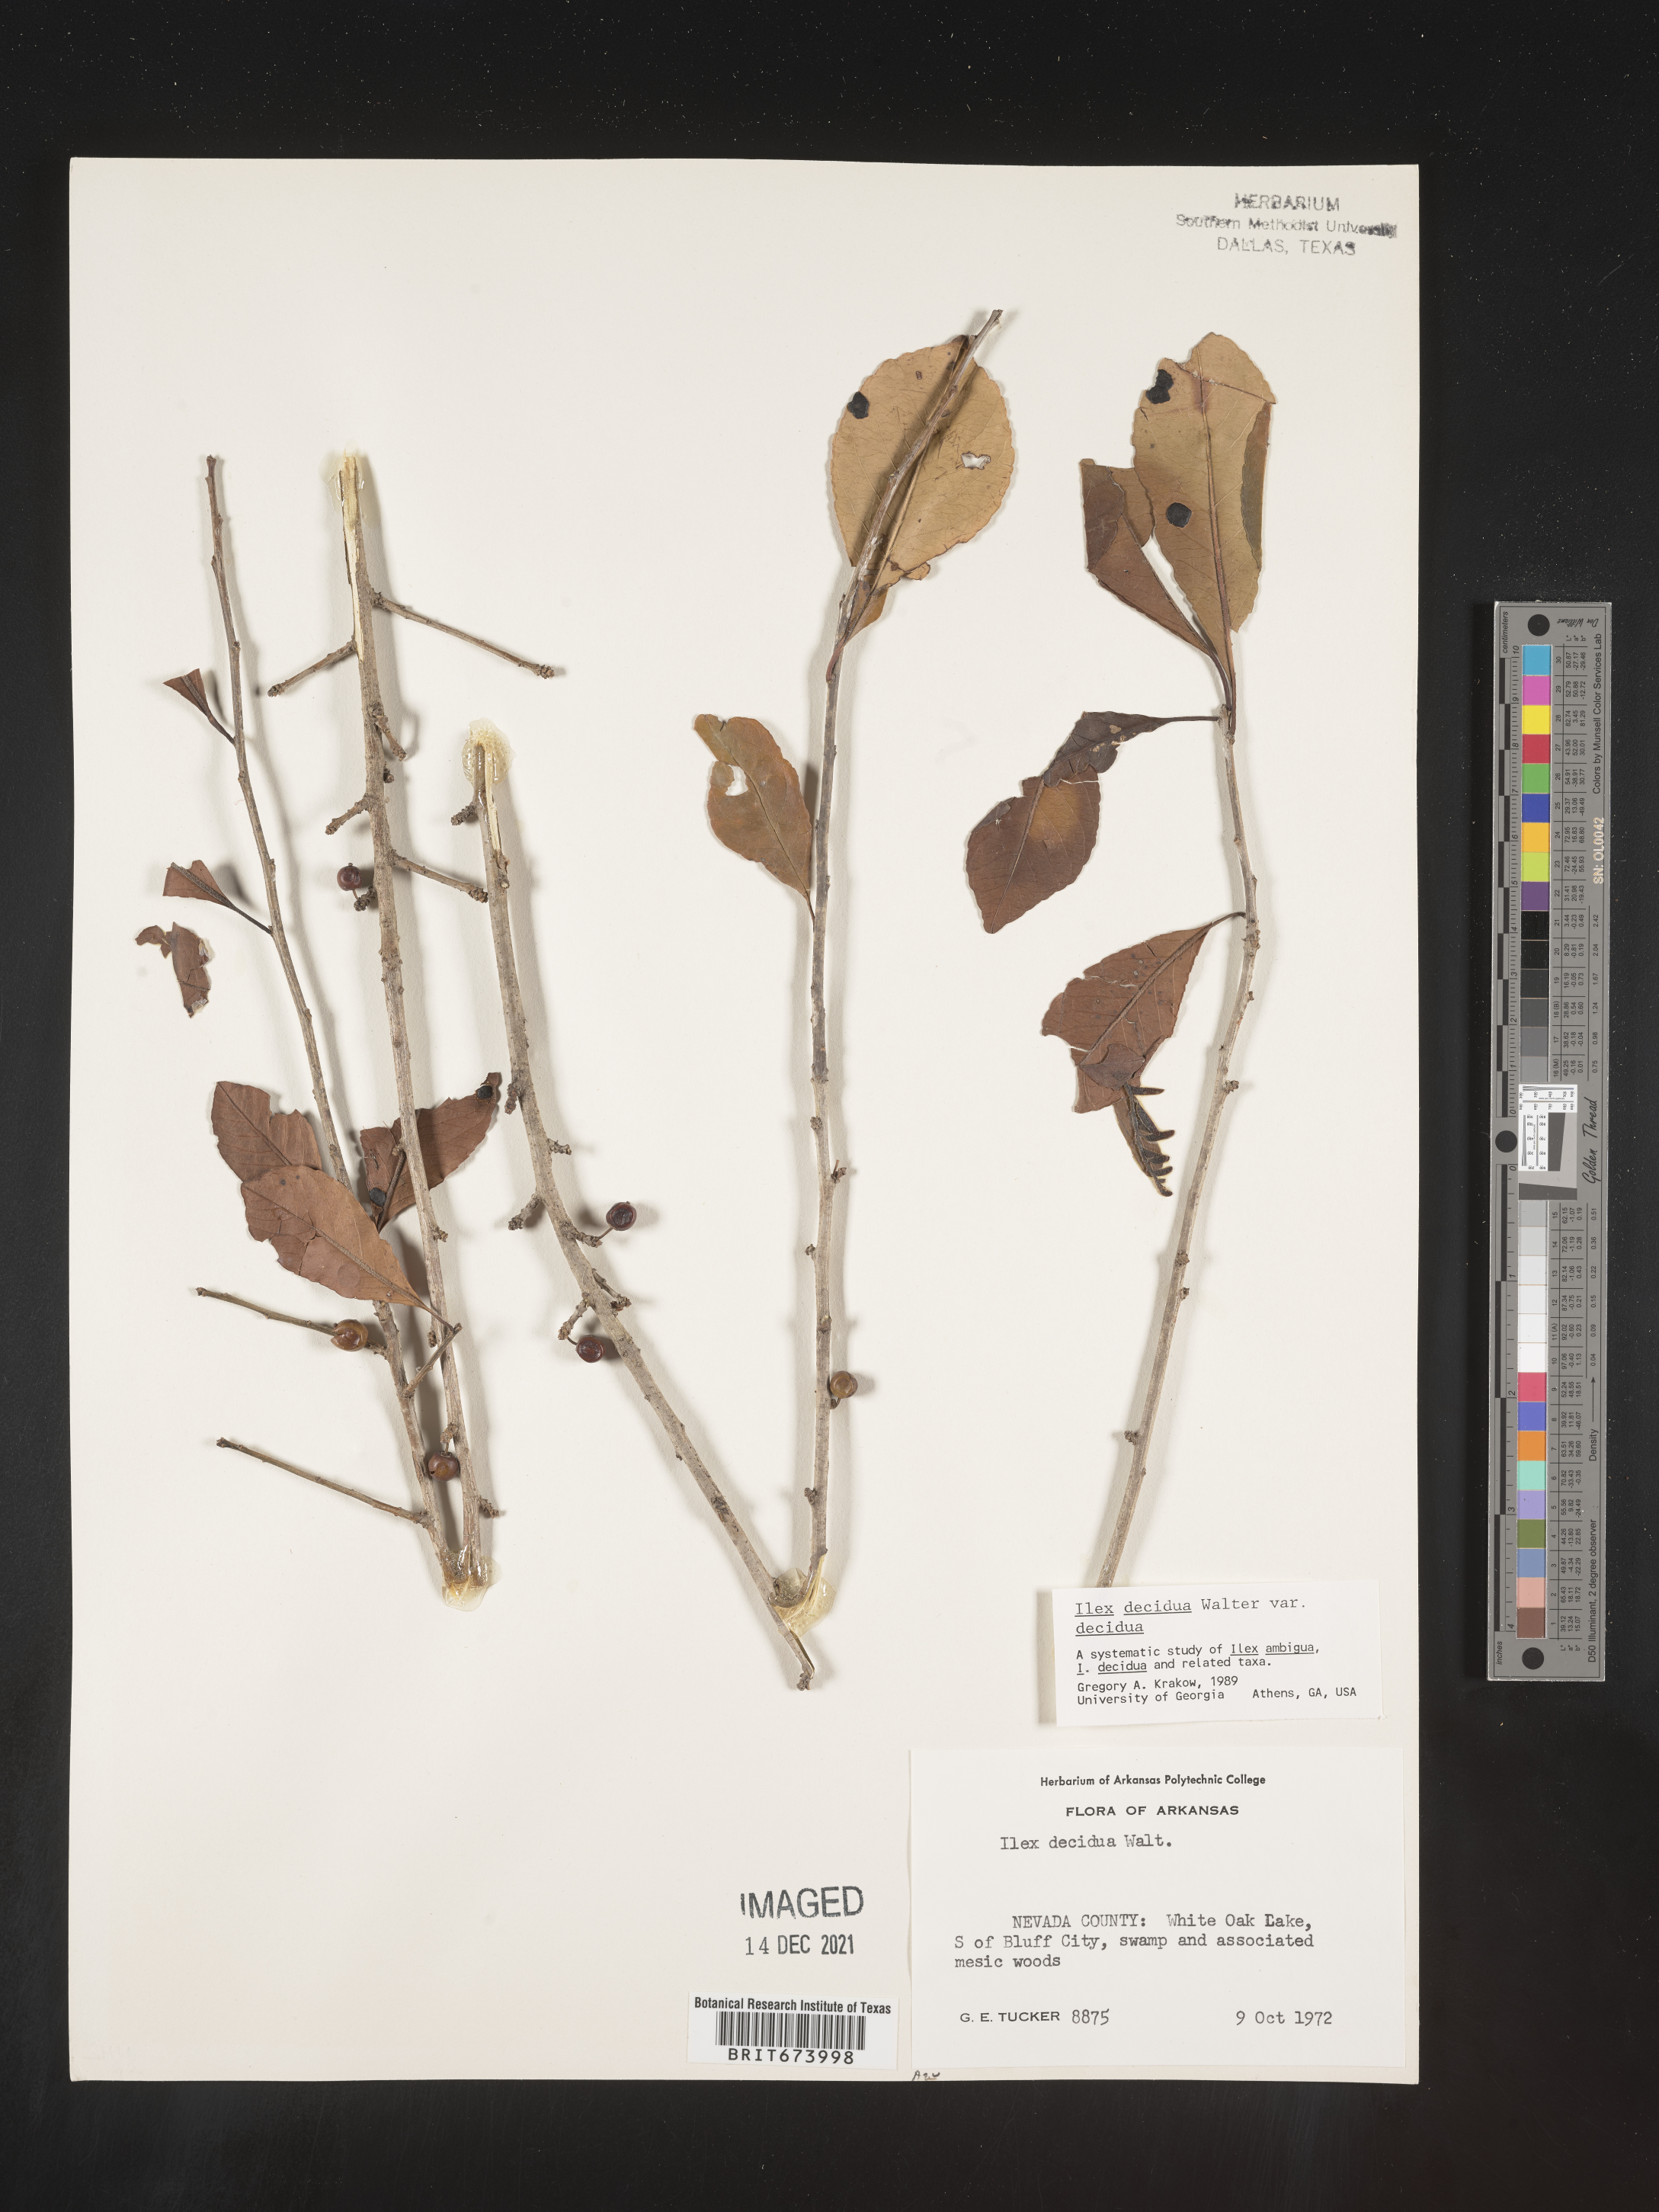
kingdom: Plantae
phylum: Tracheophyta
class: Magnoliopsida
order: Aquifoliales
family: Aquifoliaceae
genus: Ilex
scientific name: Ilex decidua
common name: Possum-haw
